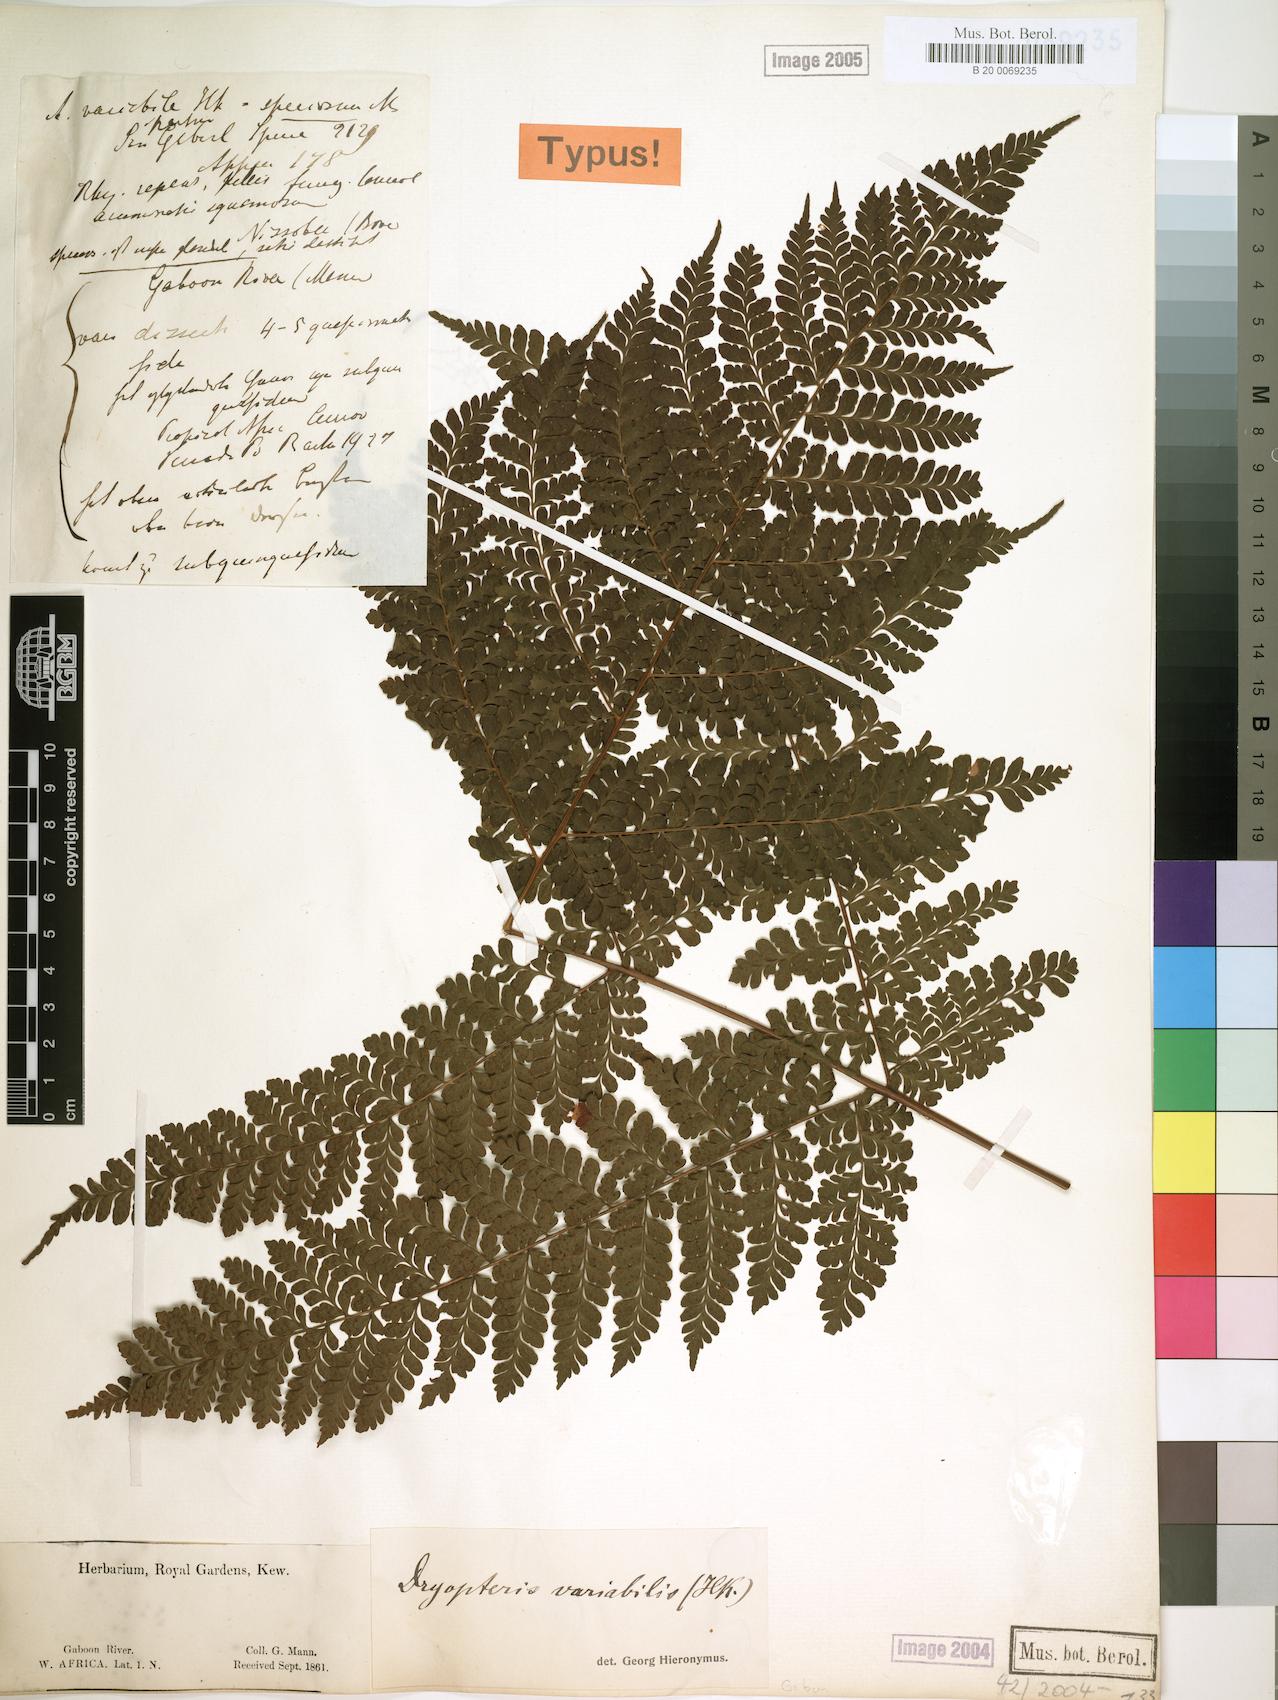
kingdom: Plantae
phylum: Tracheophyta
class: Polypodiopsida
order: Polypodiales
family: Tectariaceae
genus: Triplophyllum
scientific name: Triplophyllum pilosissimum
